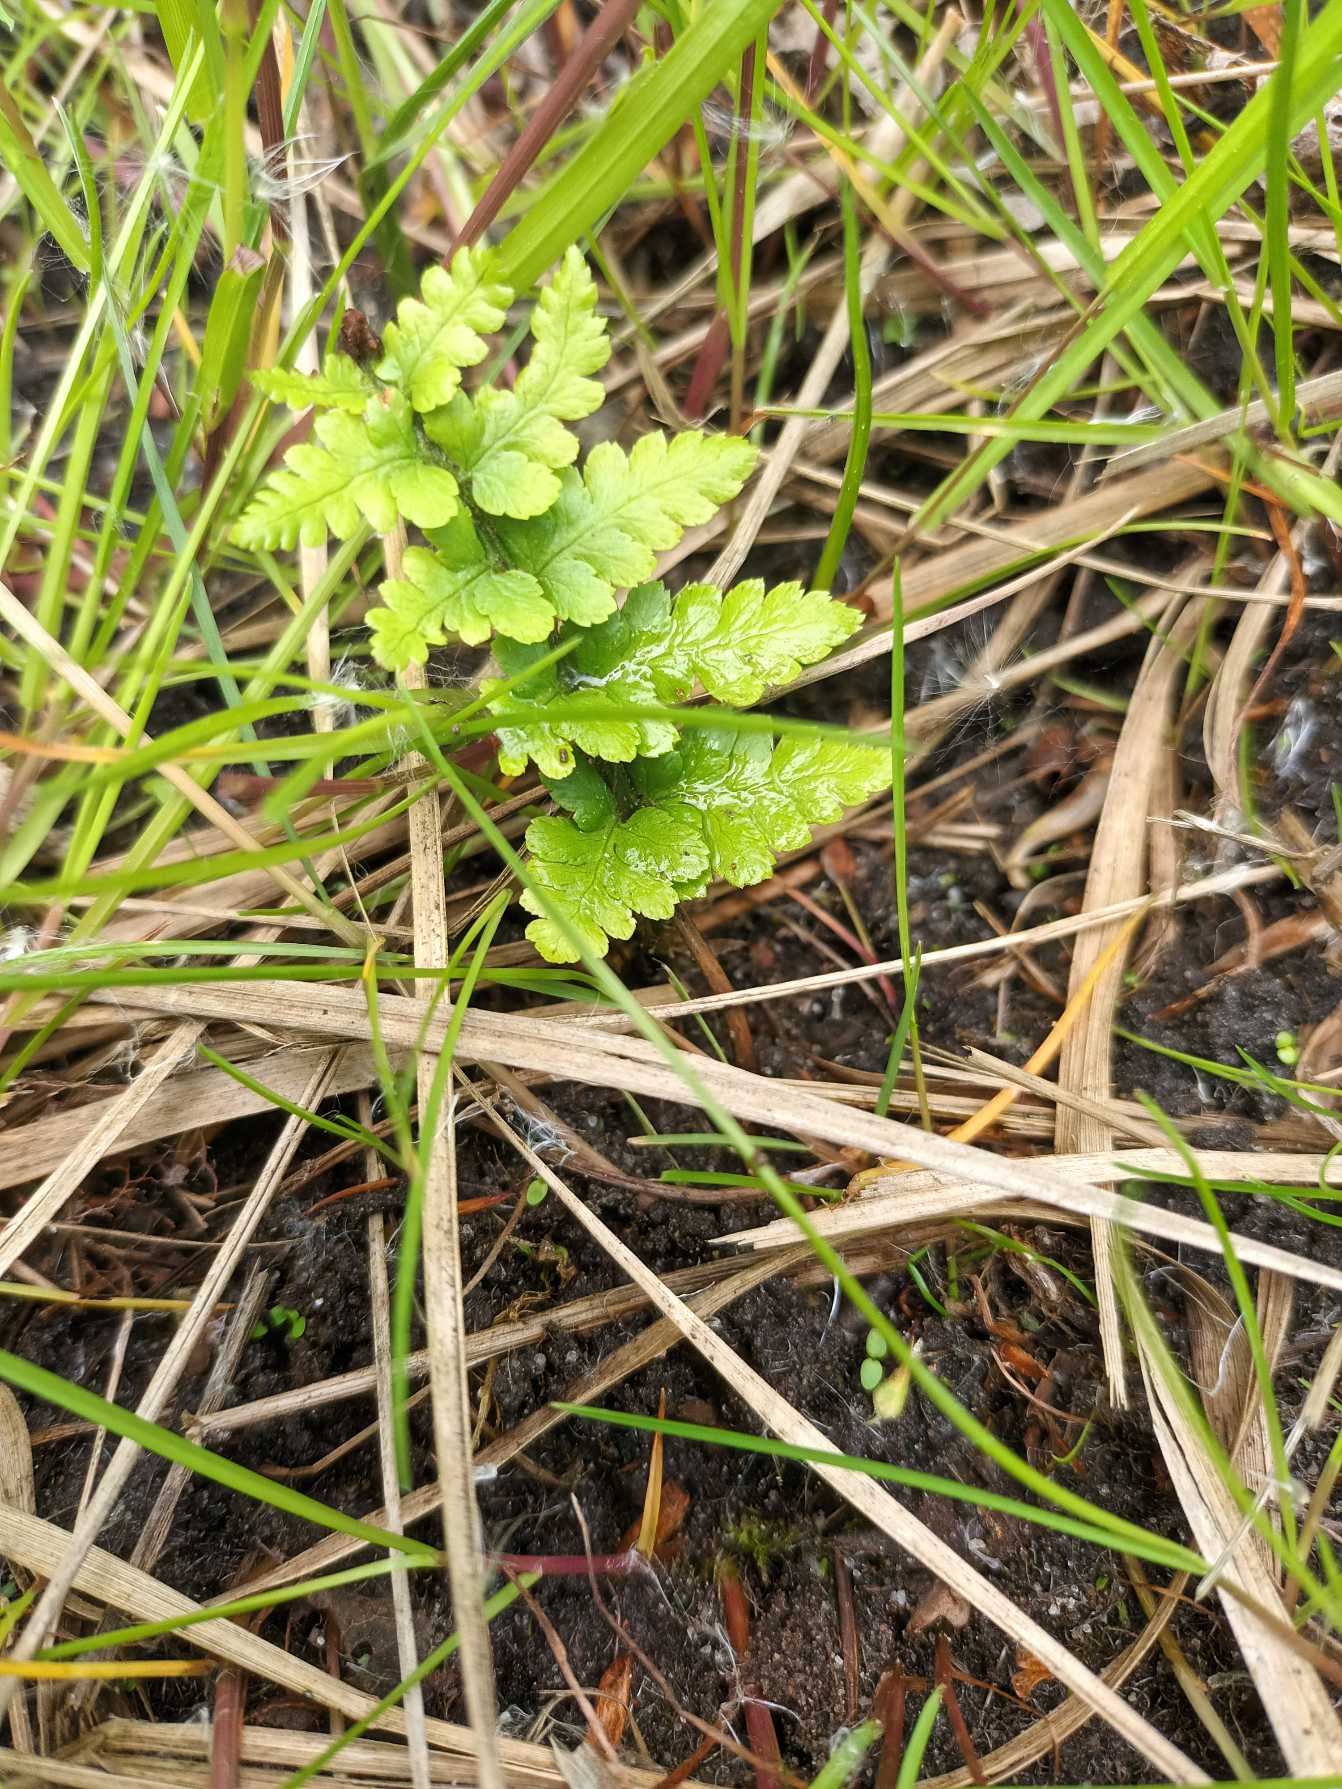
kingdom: Plantae
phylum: Tracheophyta
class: Polypodiopsida
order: Polypodiales
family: Dryopteridaceae
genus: Dryopteris
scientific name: Dryopteris cristata
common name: Butfinnet mangeløv
